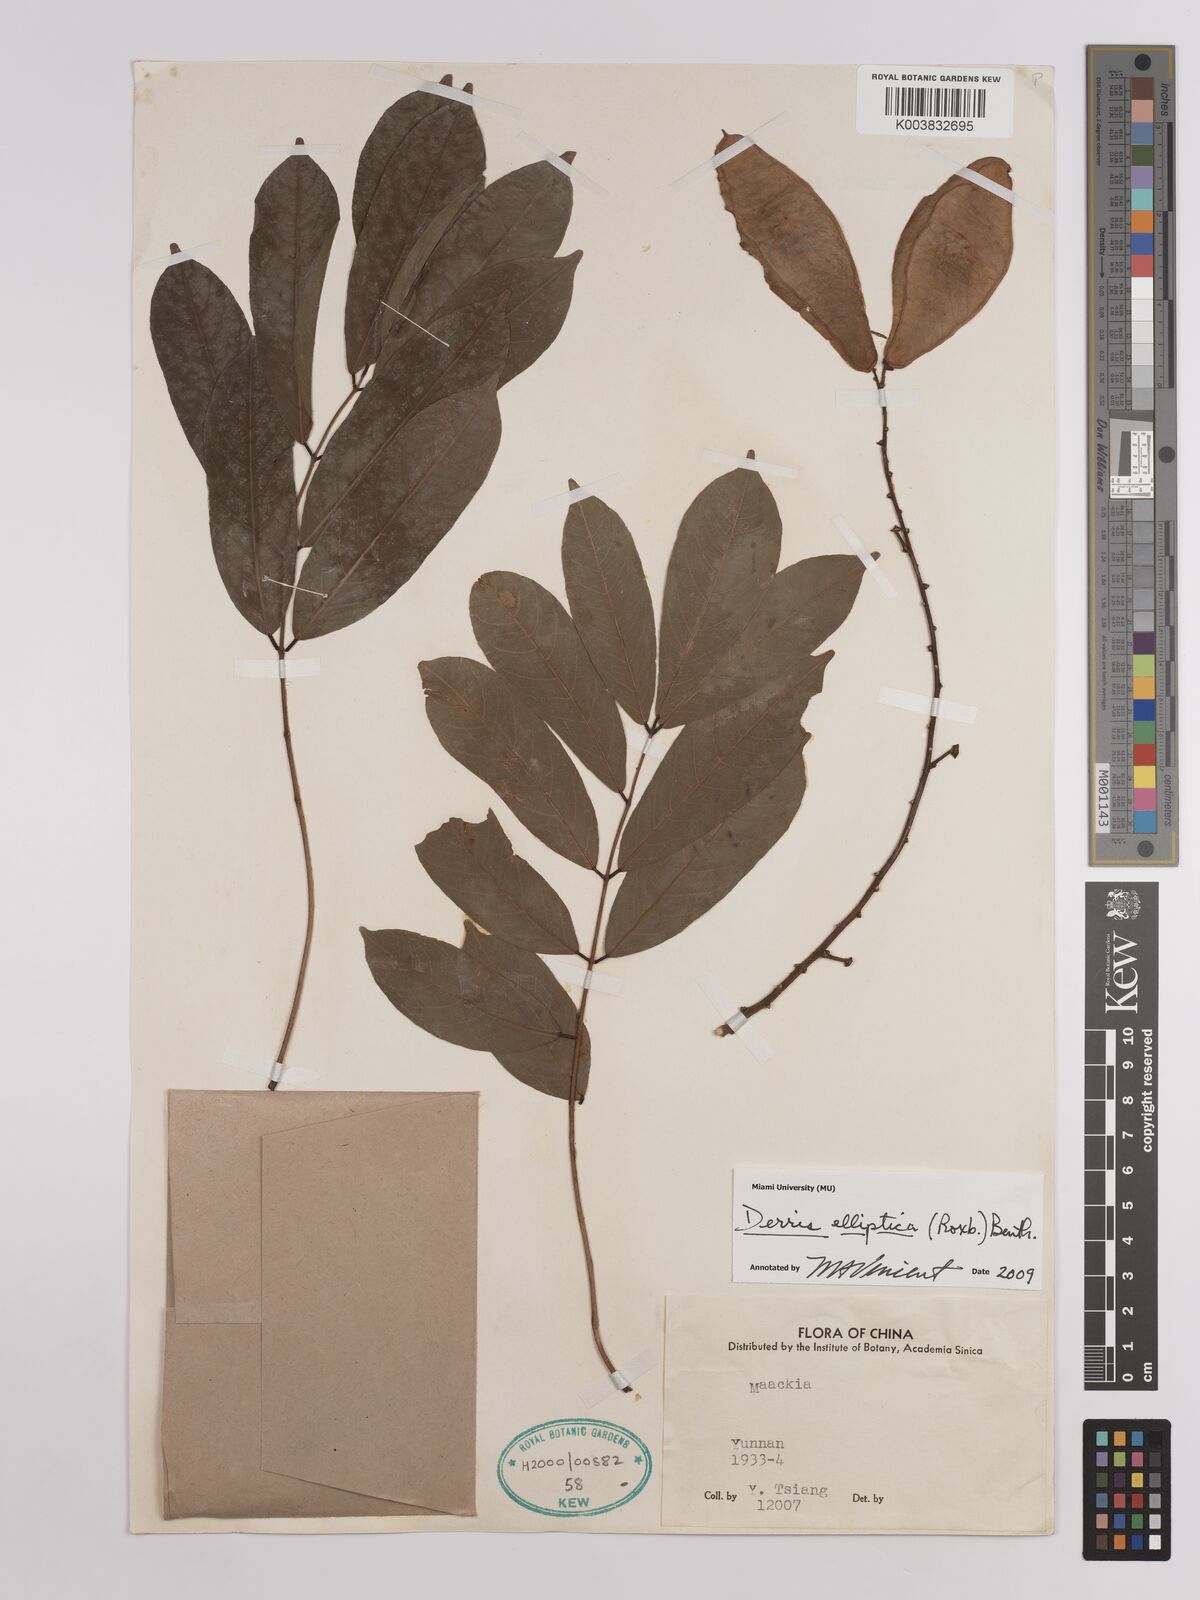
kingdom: Plantae
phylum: Tracheophyta
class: Magnoliopsida
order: Fabales
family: Fabaceae
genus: Derris
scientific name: Derris elliptica
